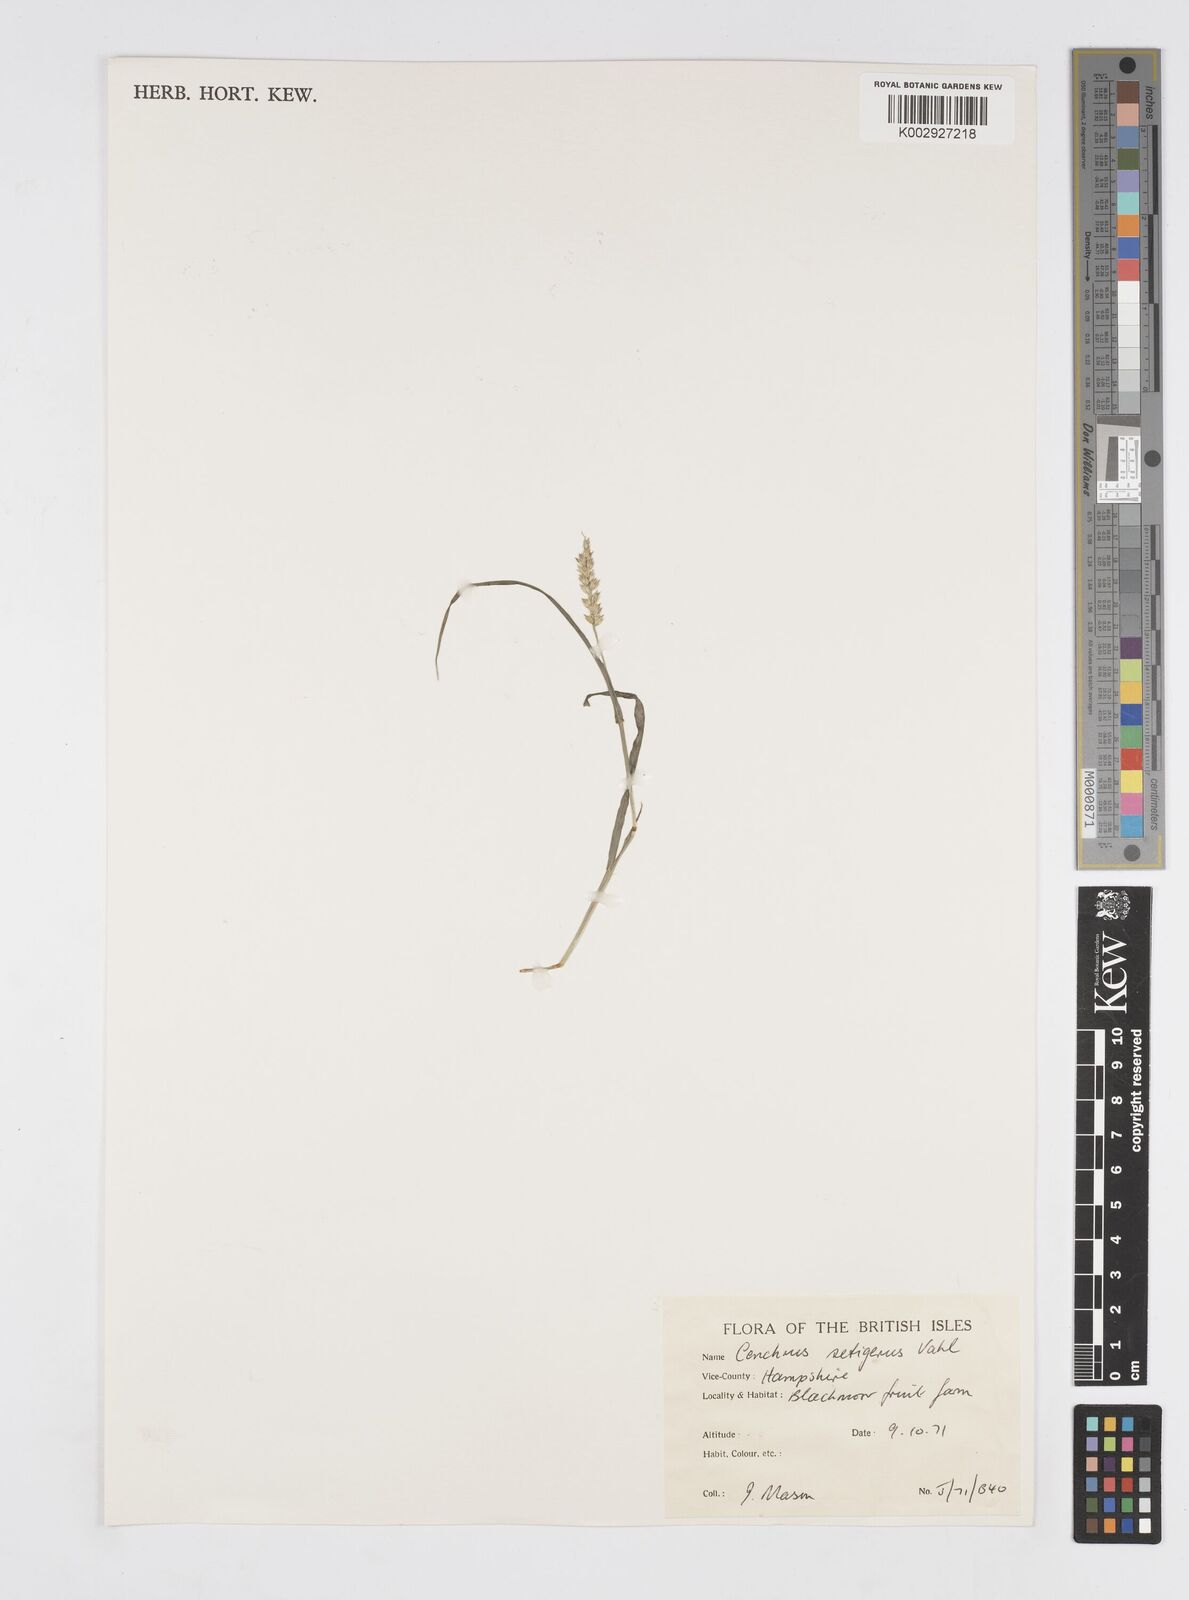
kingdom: Plantae
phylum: Tracheophyta
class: Liliopsida
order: Poales
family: Poaceae
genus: Cenchrus
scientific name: Cenchrus setigerus
